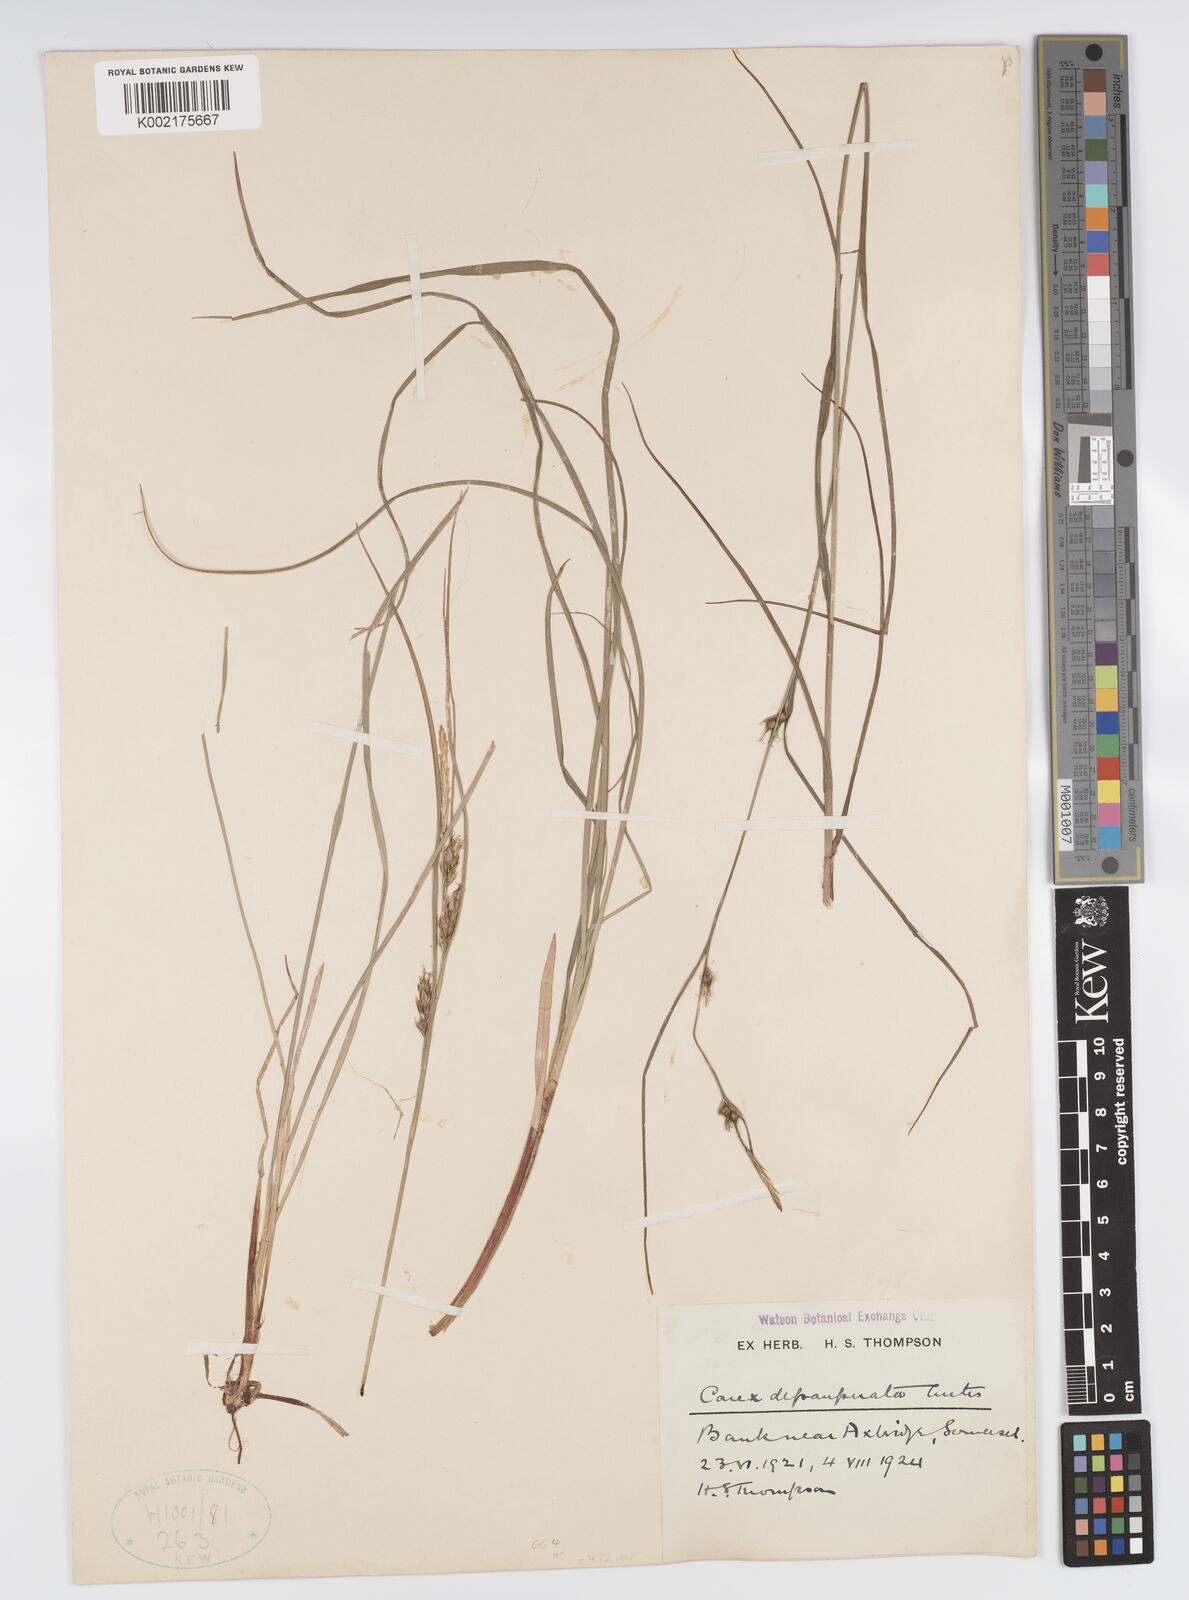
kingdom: Plantae
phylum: Tracheophyta
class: Liliopsida
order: Poales
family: Cyperaceae
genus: Carex
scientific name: Carex depauperata
